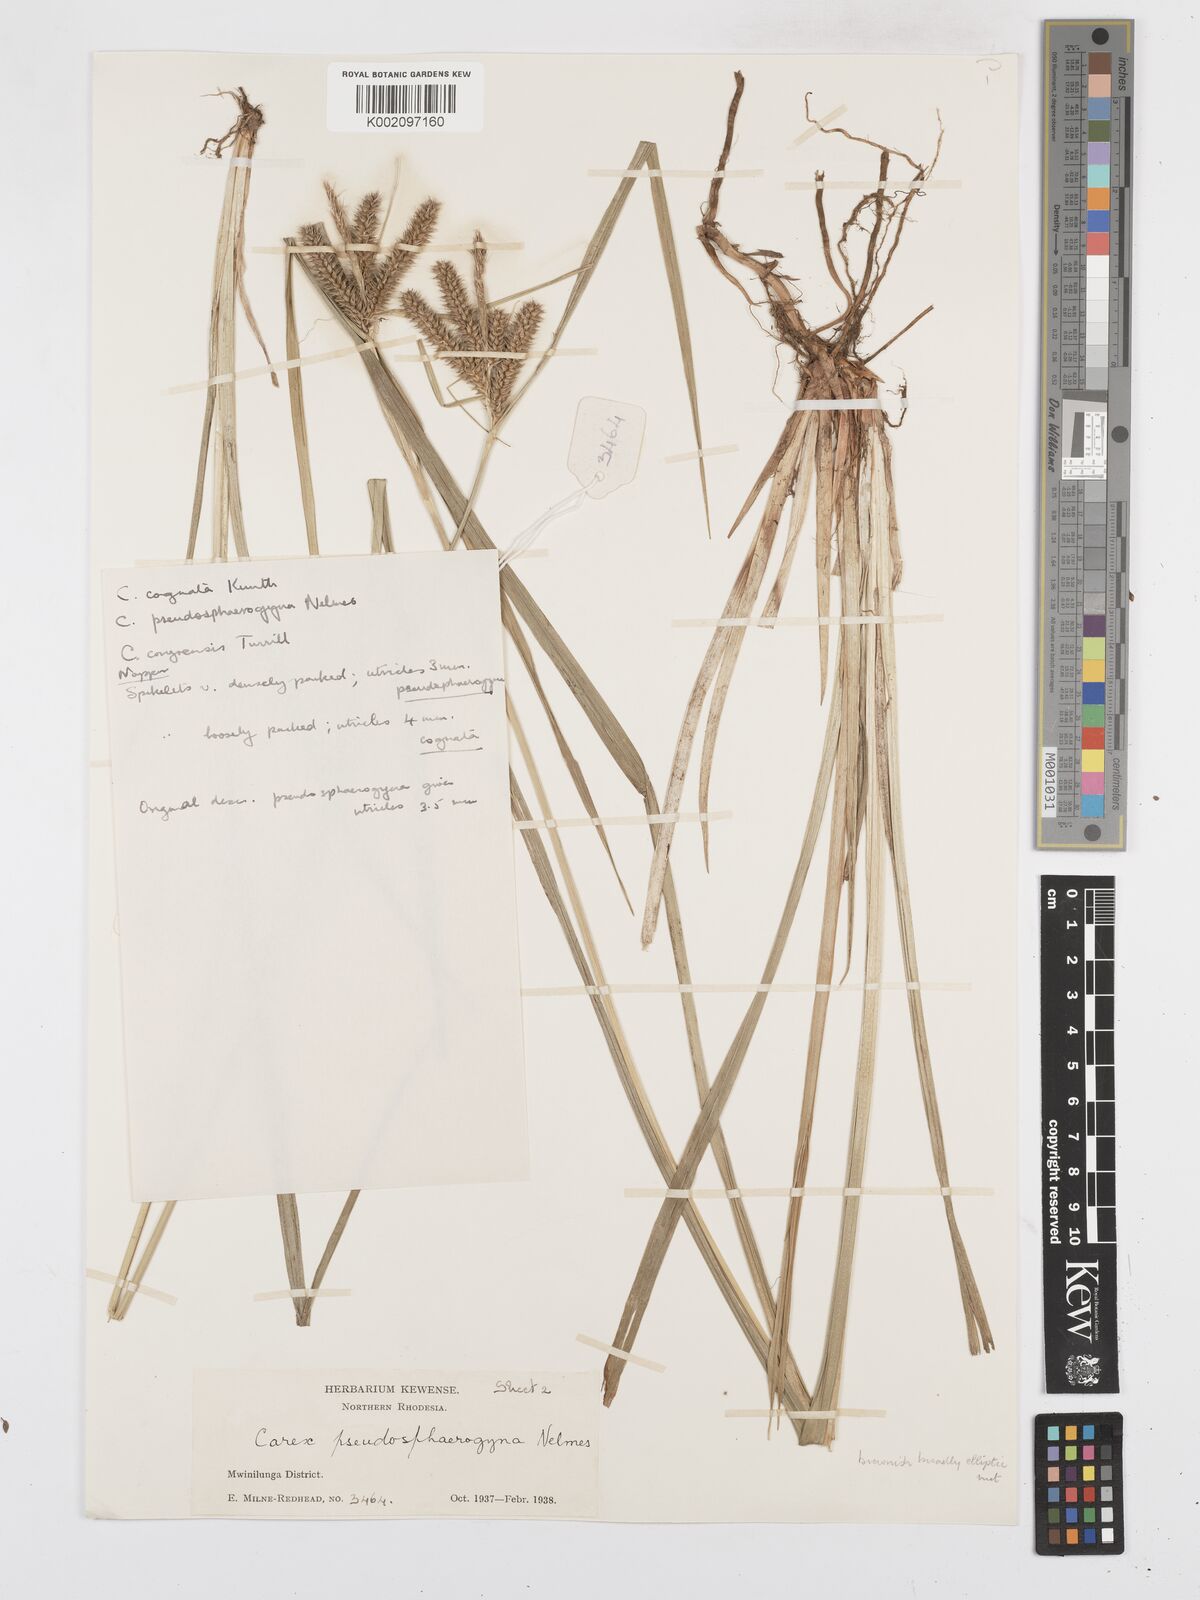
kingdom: Plantae
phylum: Tracheophyta
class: Liliopsida
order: Poales
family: Cyperaceae
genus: Carex
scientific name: Carex congolensis
